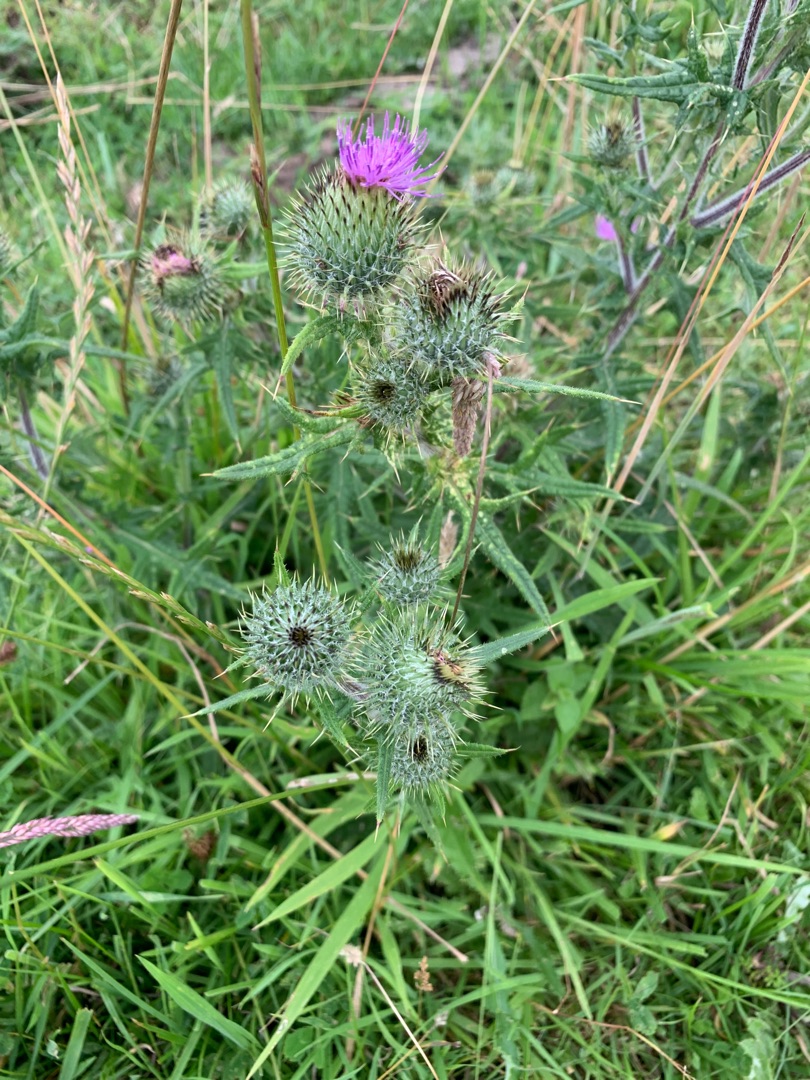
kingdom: Plantae
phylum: Tracheophyta
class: Magnoliopsida
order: Asterales
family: Asteraceae
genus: Cirsium
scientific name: Cirsium vulgare
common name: Horse-tidsel
